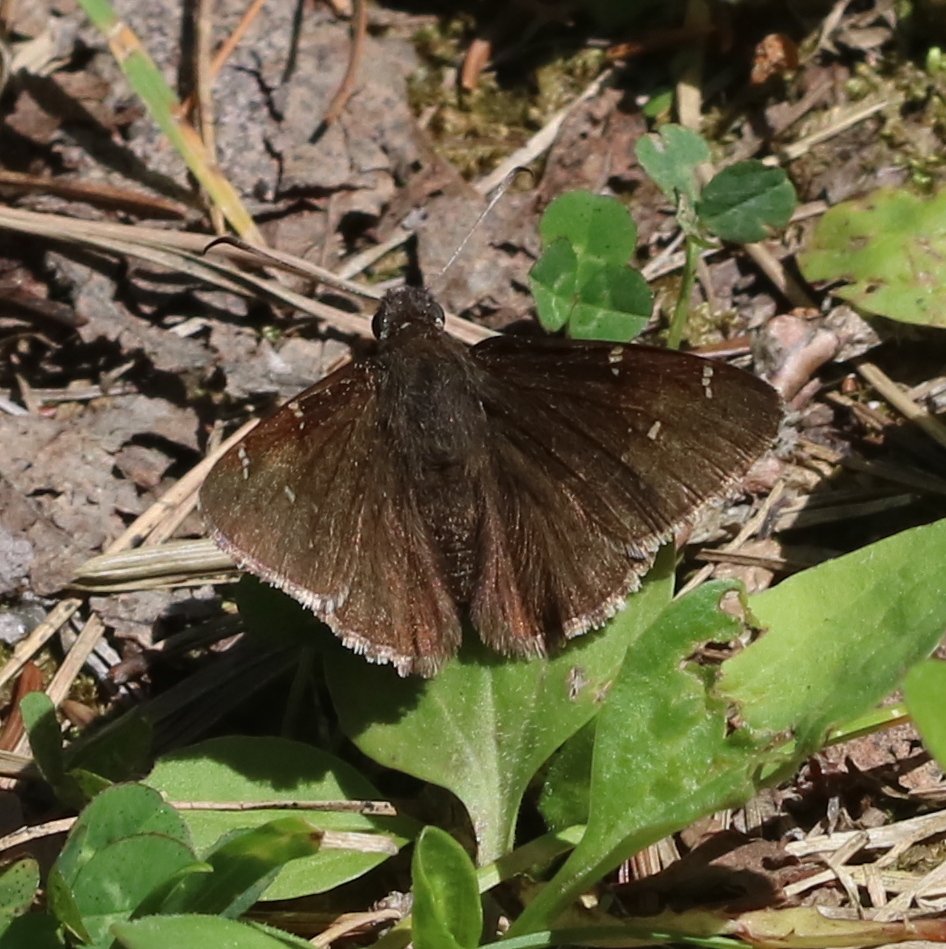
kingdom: Animalia
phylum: Arthropoda
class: Insecta
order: Lepidoptera
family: Hesperiidae
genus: Autochton
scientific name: Autochton
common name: Northern Cloudywing
